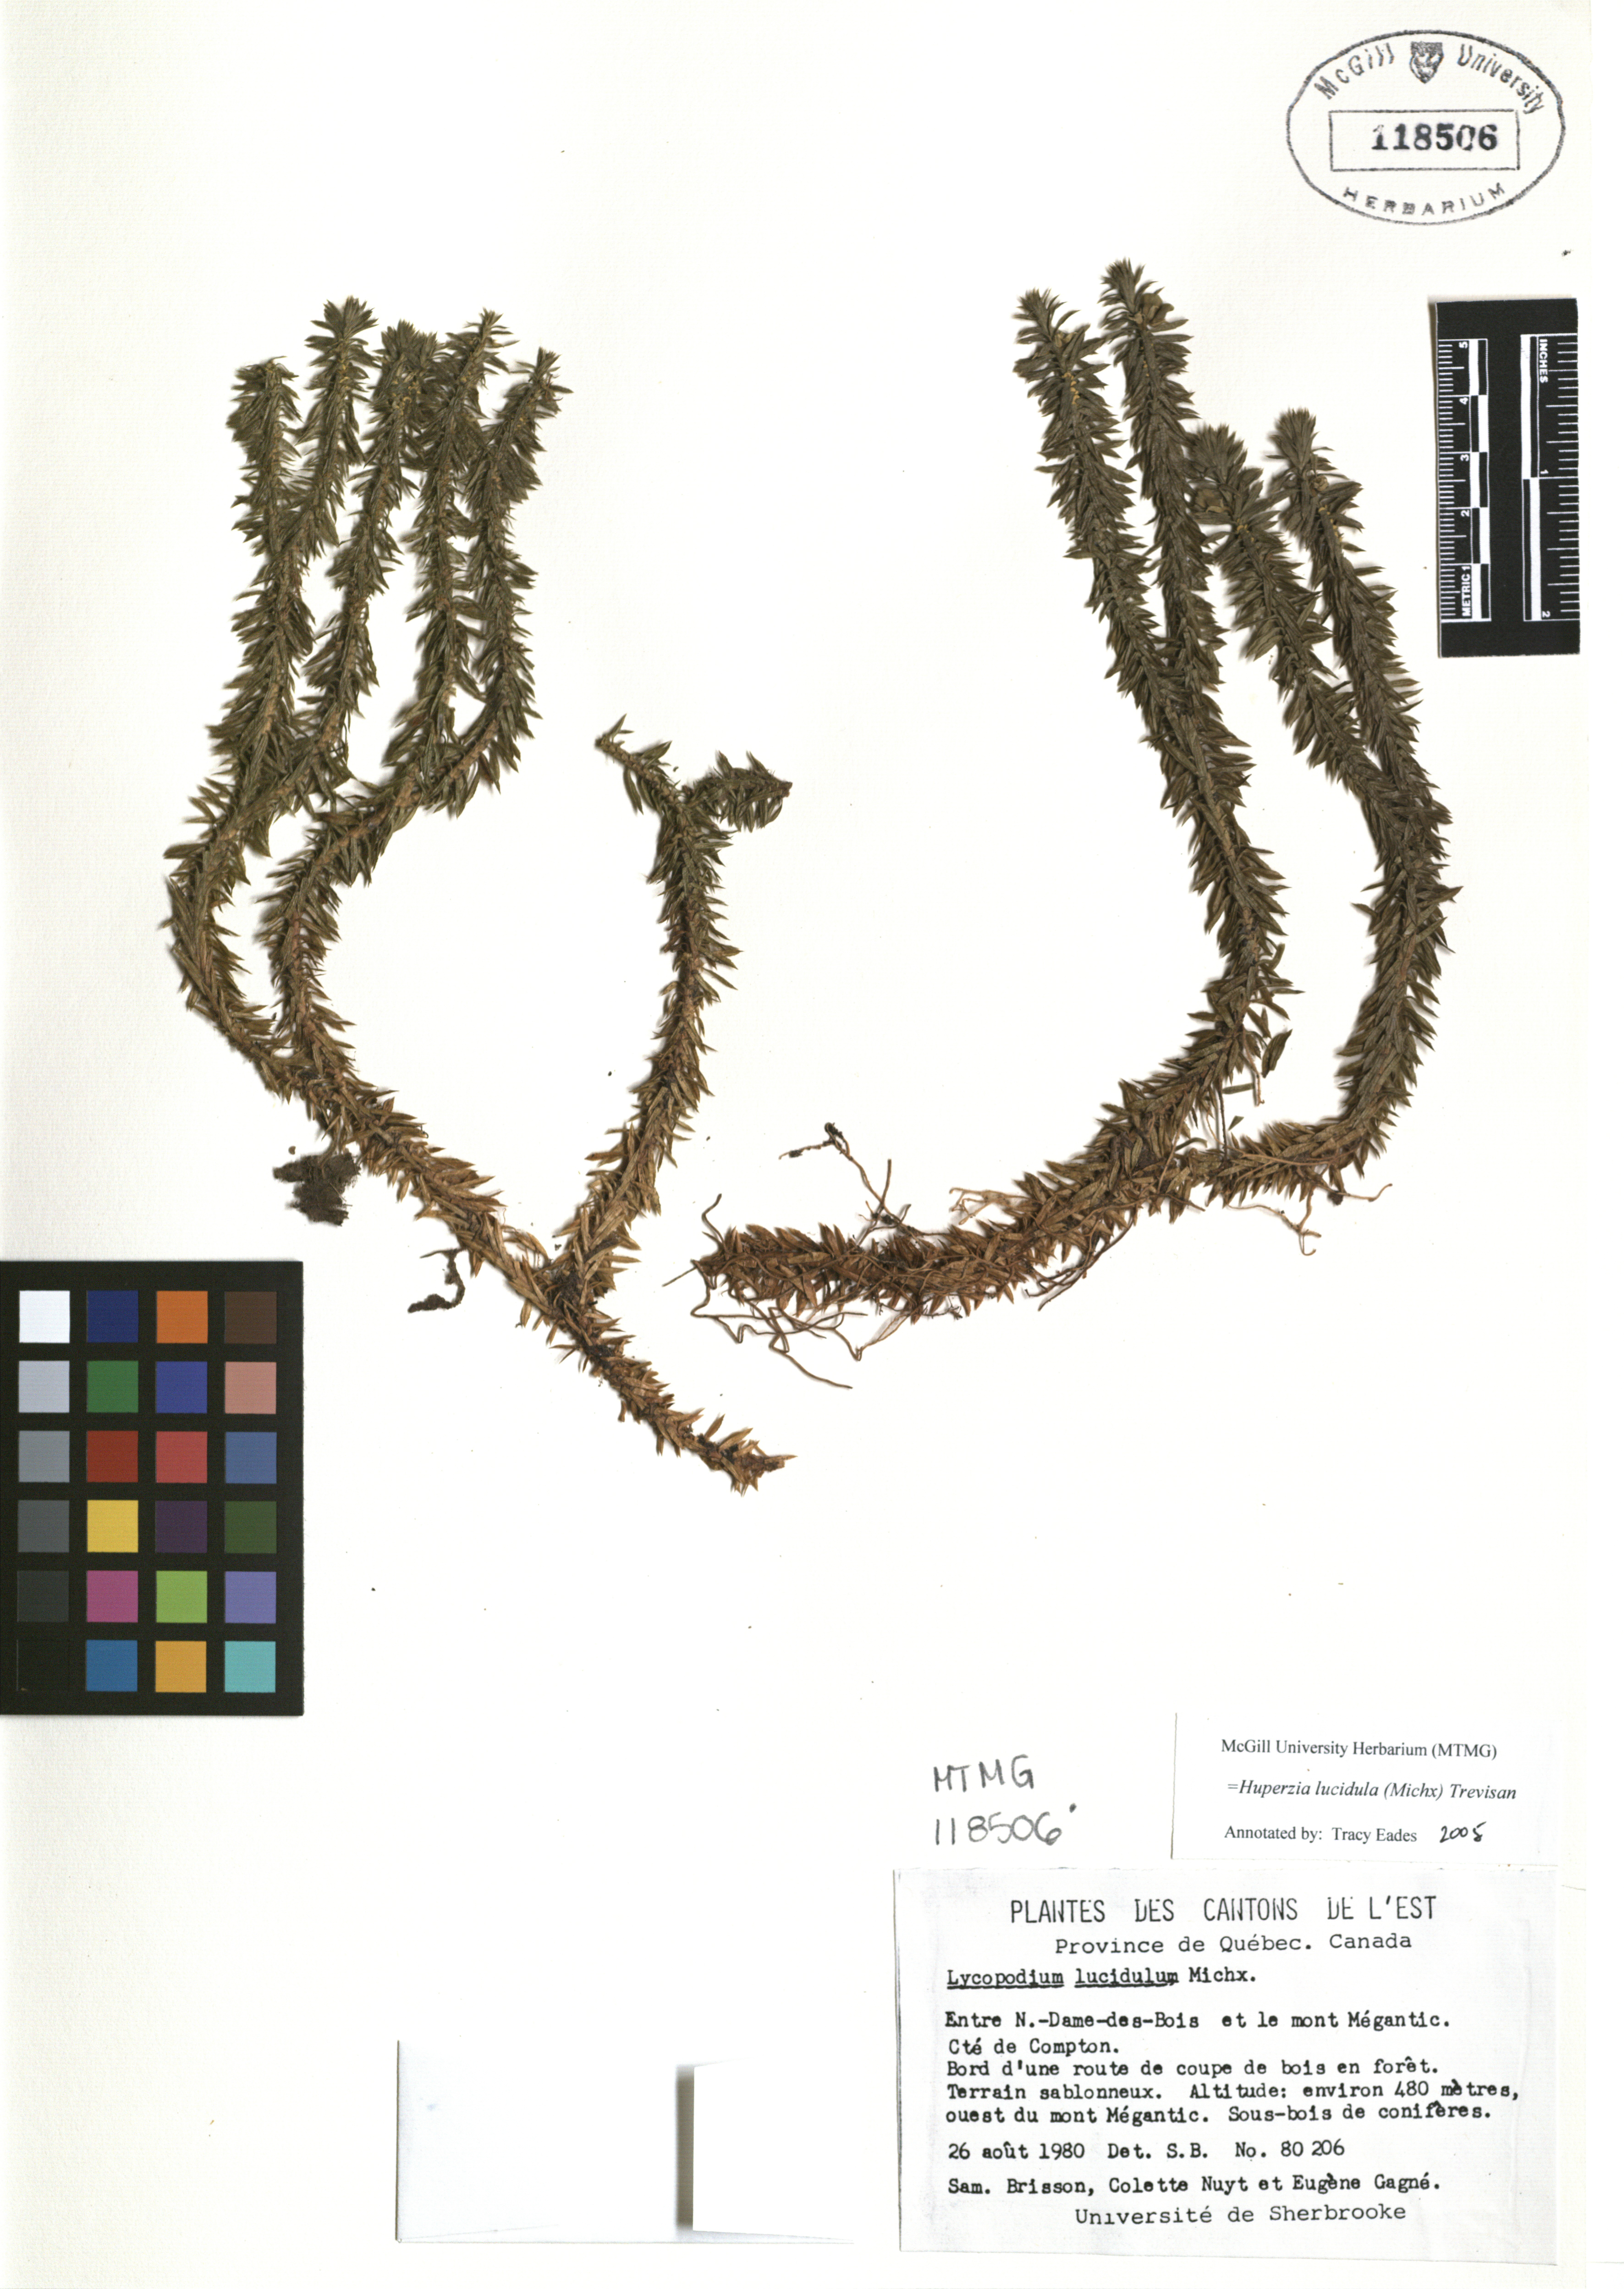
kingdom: Plantae
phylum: Tracheophyta
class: Lycopodiopsida
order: Lycopodiales
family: Lycopodiaceae
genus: Huperzia
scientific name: Huperzia lucidula
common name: Shining clubmoss
